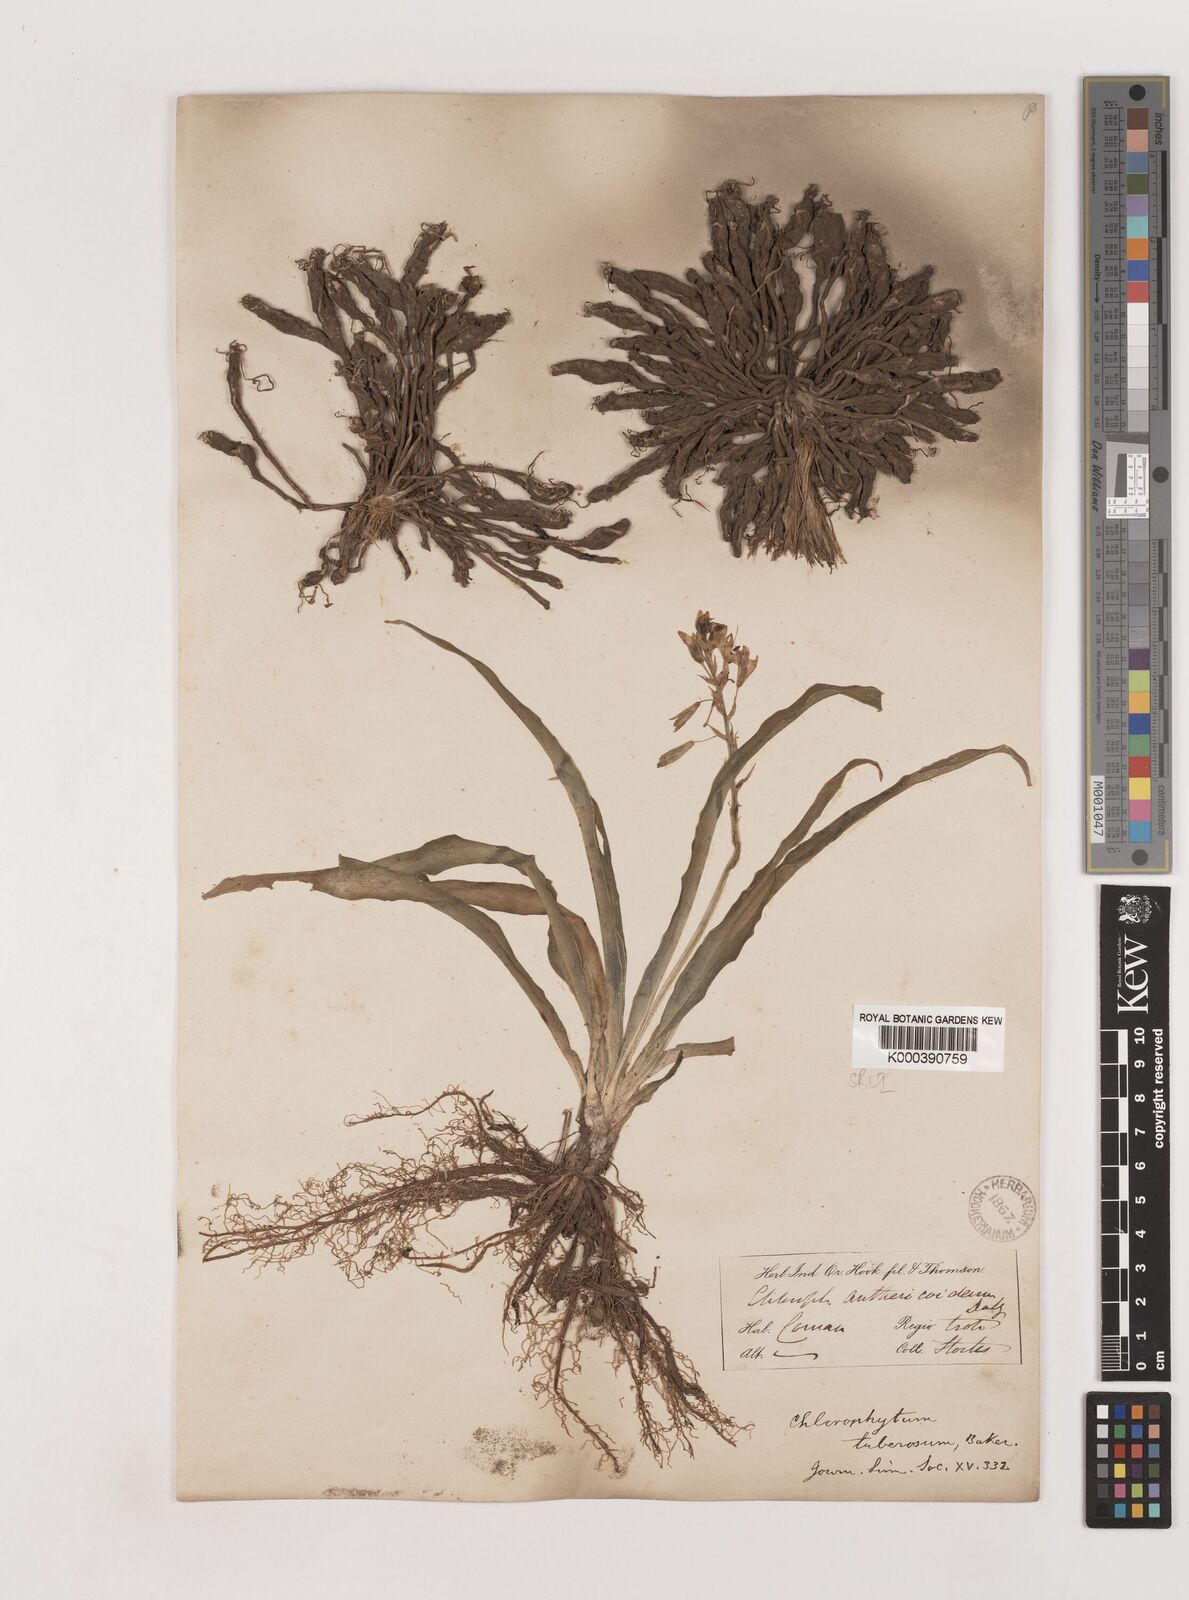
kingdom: Plantae
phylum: Tracheophyta
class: Liliopsida
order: Asparagales
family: Asparagaceae
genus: Chlorophytum
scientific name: Chlorophytum tuberosum
